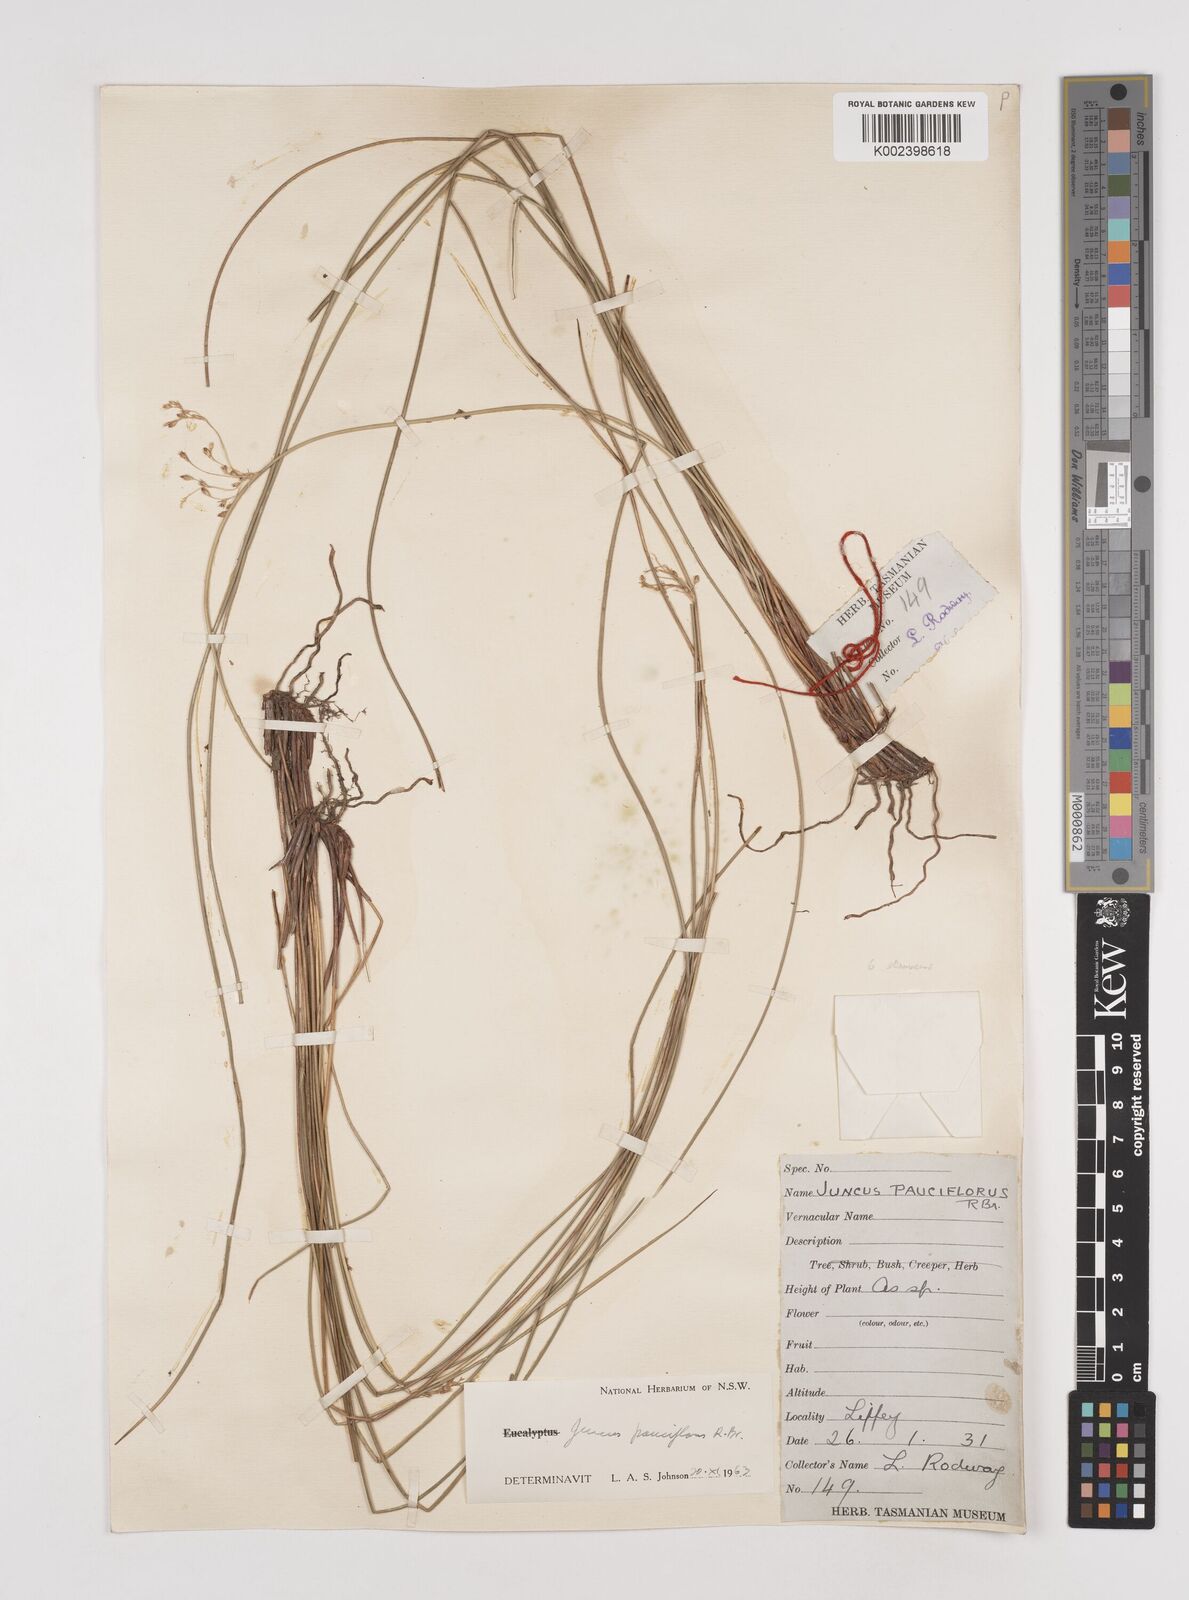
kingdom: Plantae
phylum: Tracheophyta
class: Liliopsida
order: Poales
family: Juncaceae
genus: Juncus
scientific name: Juncus pauciflorus
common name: Loose-flowered rush
